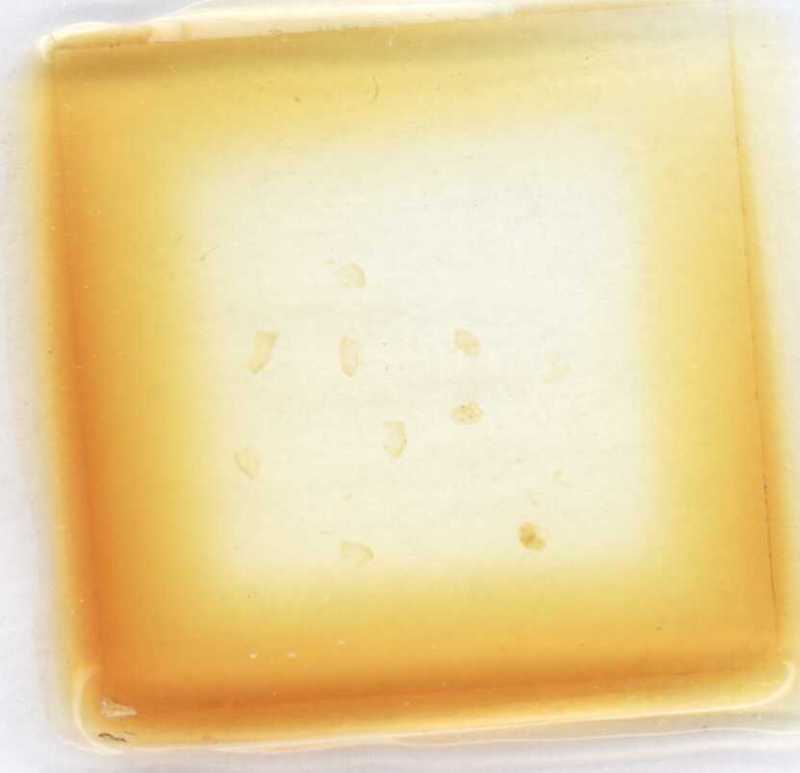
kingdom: Animalia
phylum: Arthropoda
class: Diplopoda
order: Glomerida
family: Glomeridae
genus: Trachysphaera
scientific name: Trachysphaera varallensis
